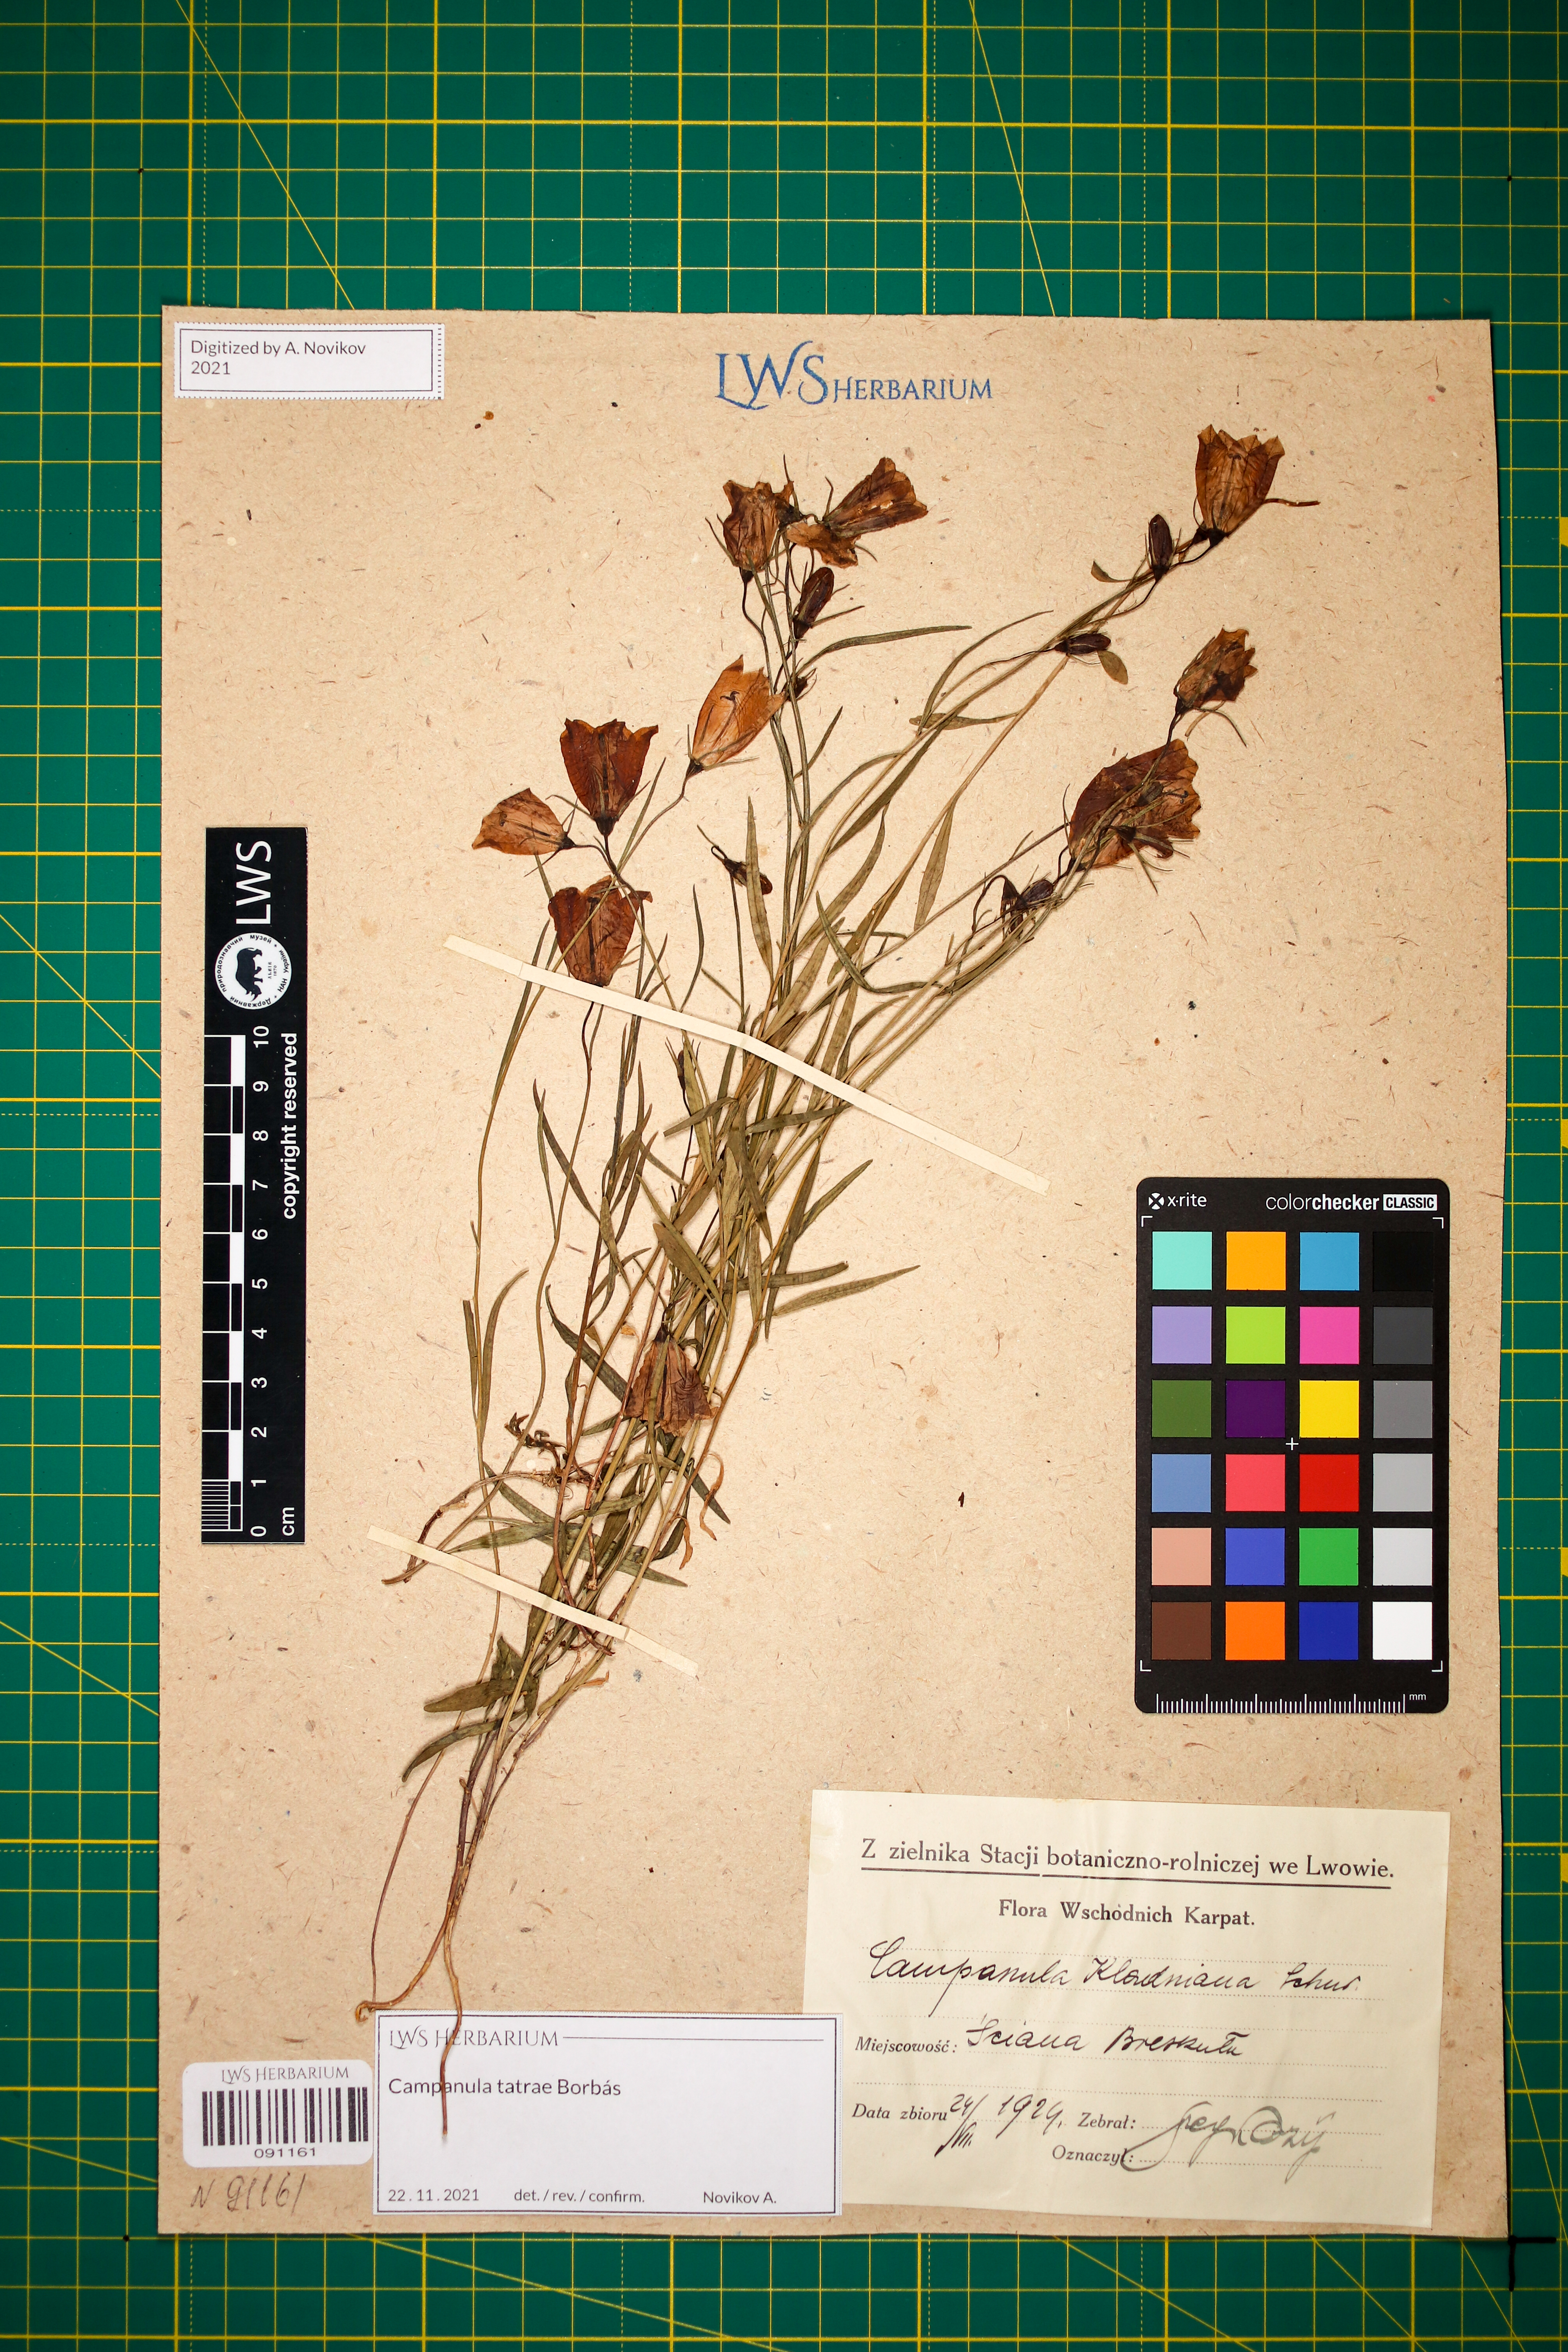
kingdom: Plantae
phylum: Tracheophyta
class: Magnoliopsida
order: Asterales
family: Campanulaceae
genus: Campanula
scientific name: Campanula kladniana
